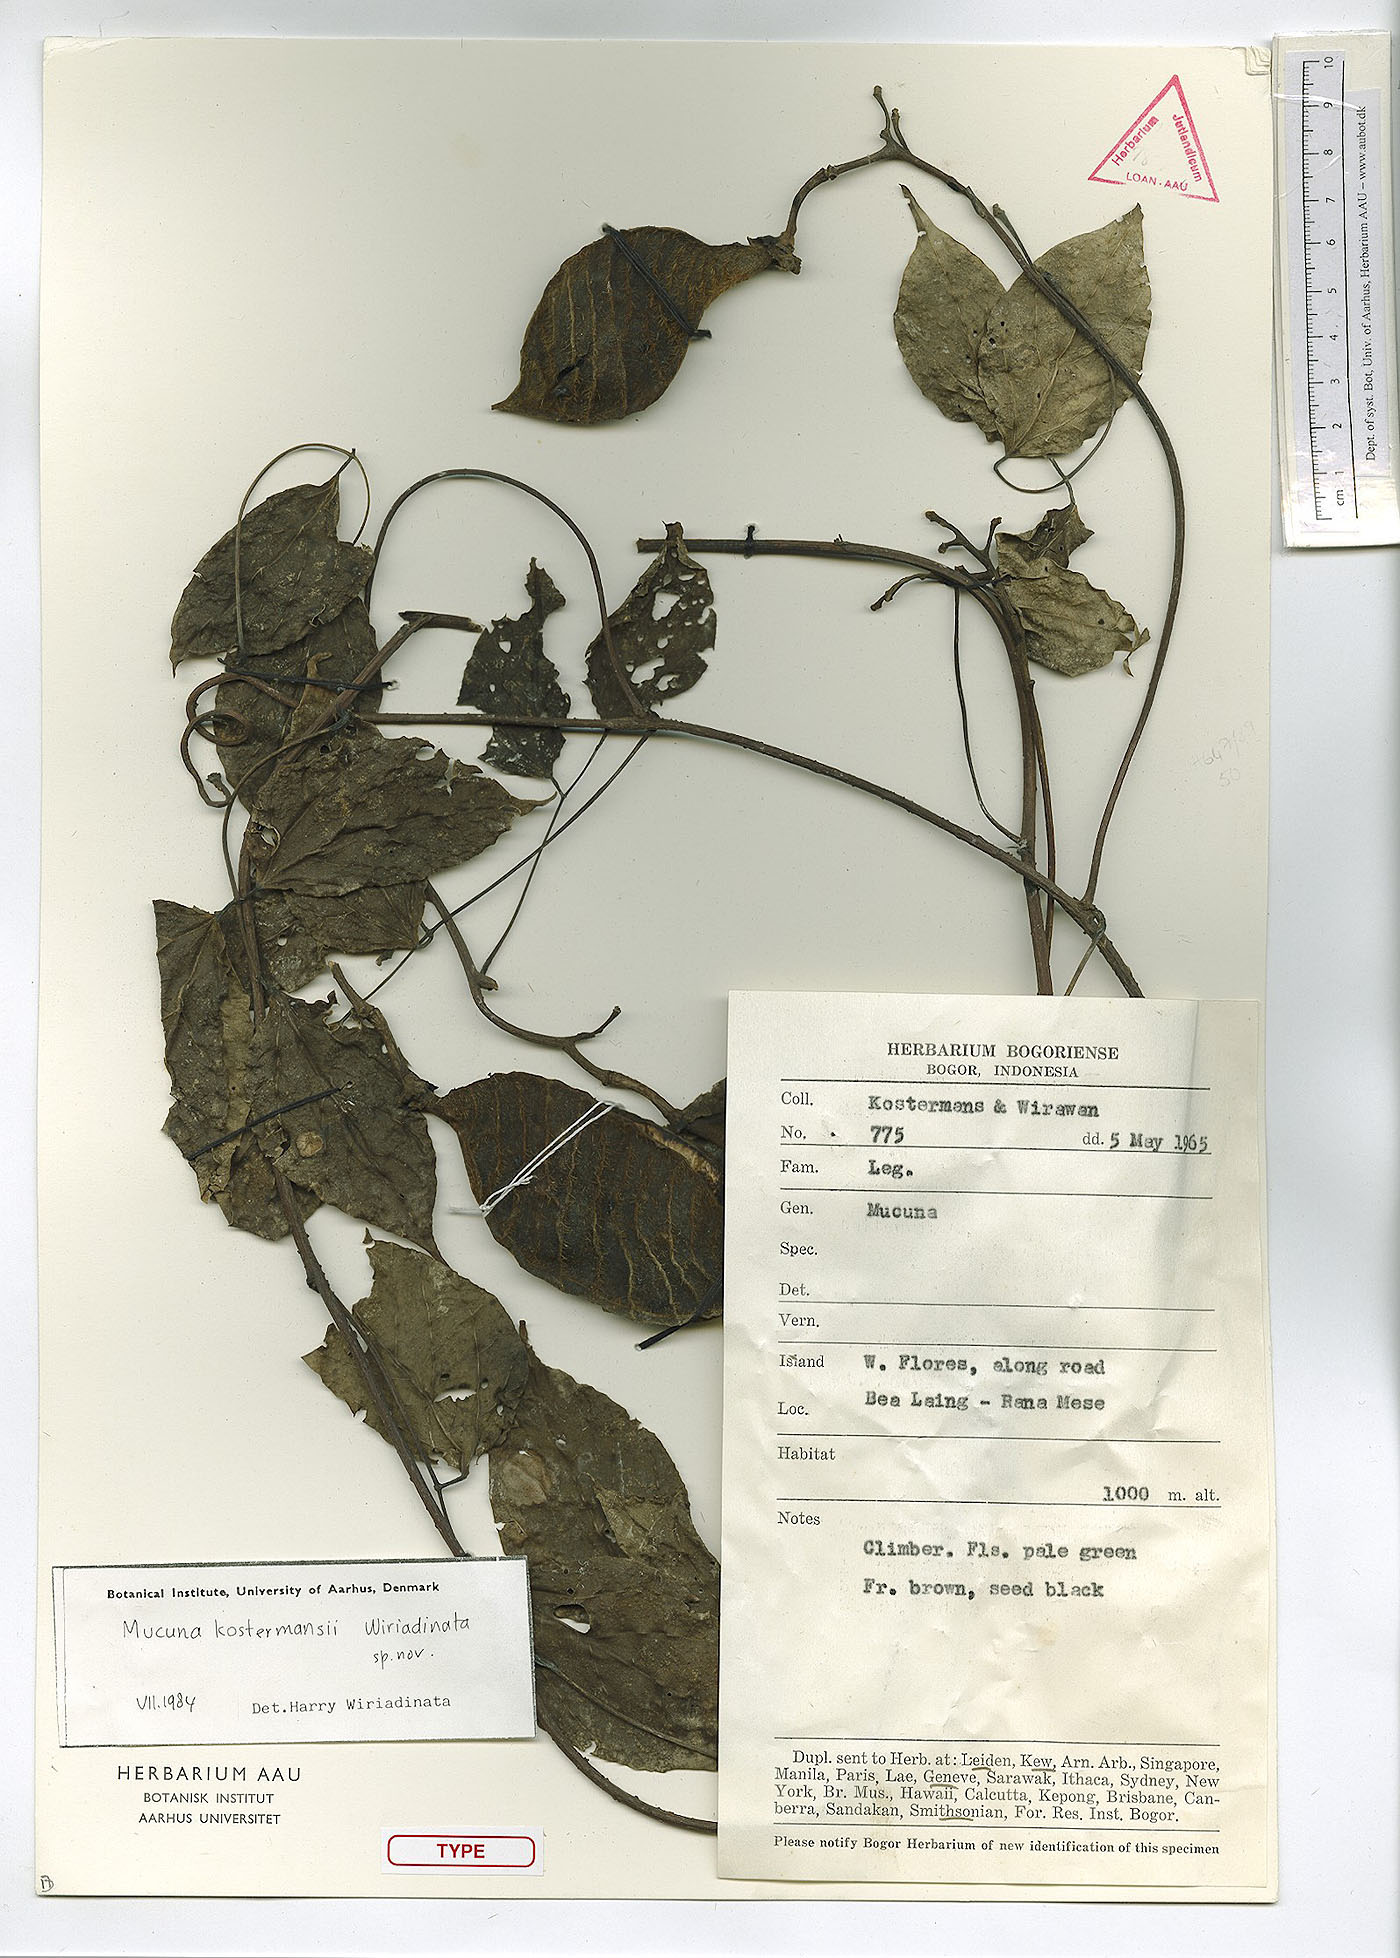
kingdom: Plantae
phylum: Tracheophyta
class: Magnoliopsida
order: Fabales
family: Fabaceae
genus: Mucuna
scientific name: Mucuna kostermansii
